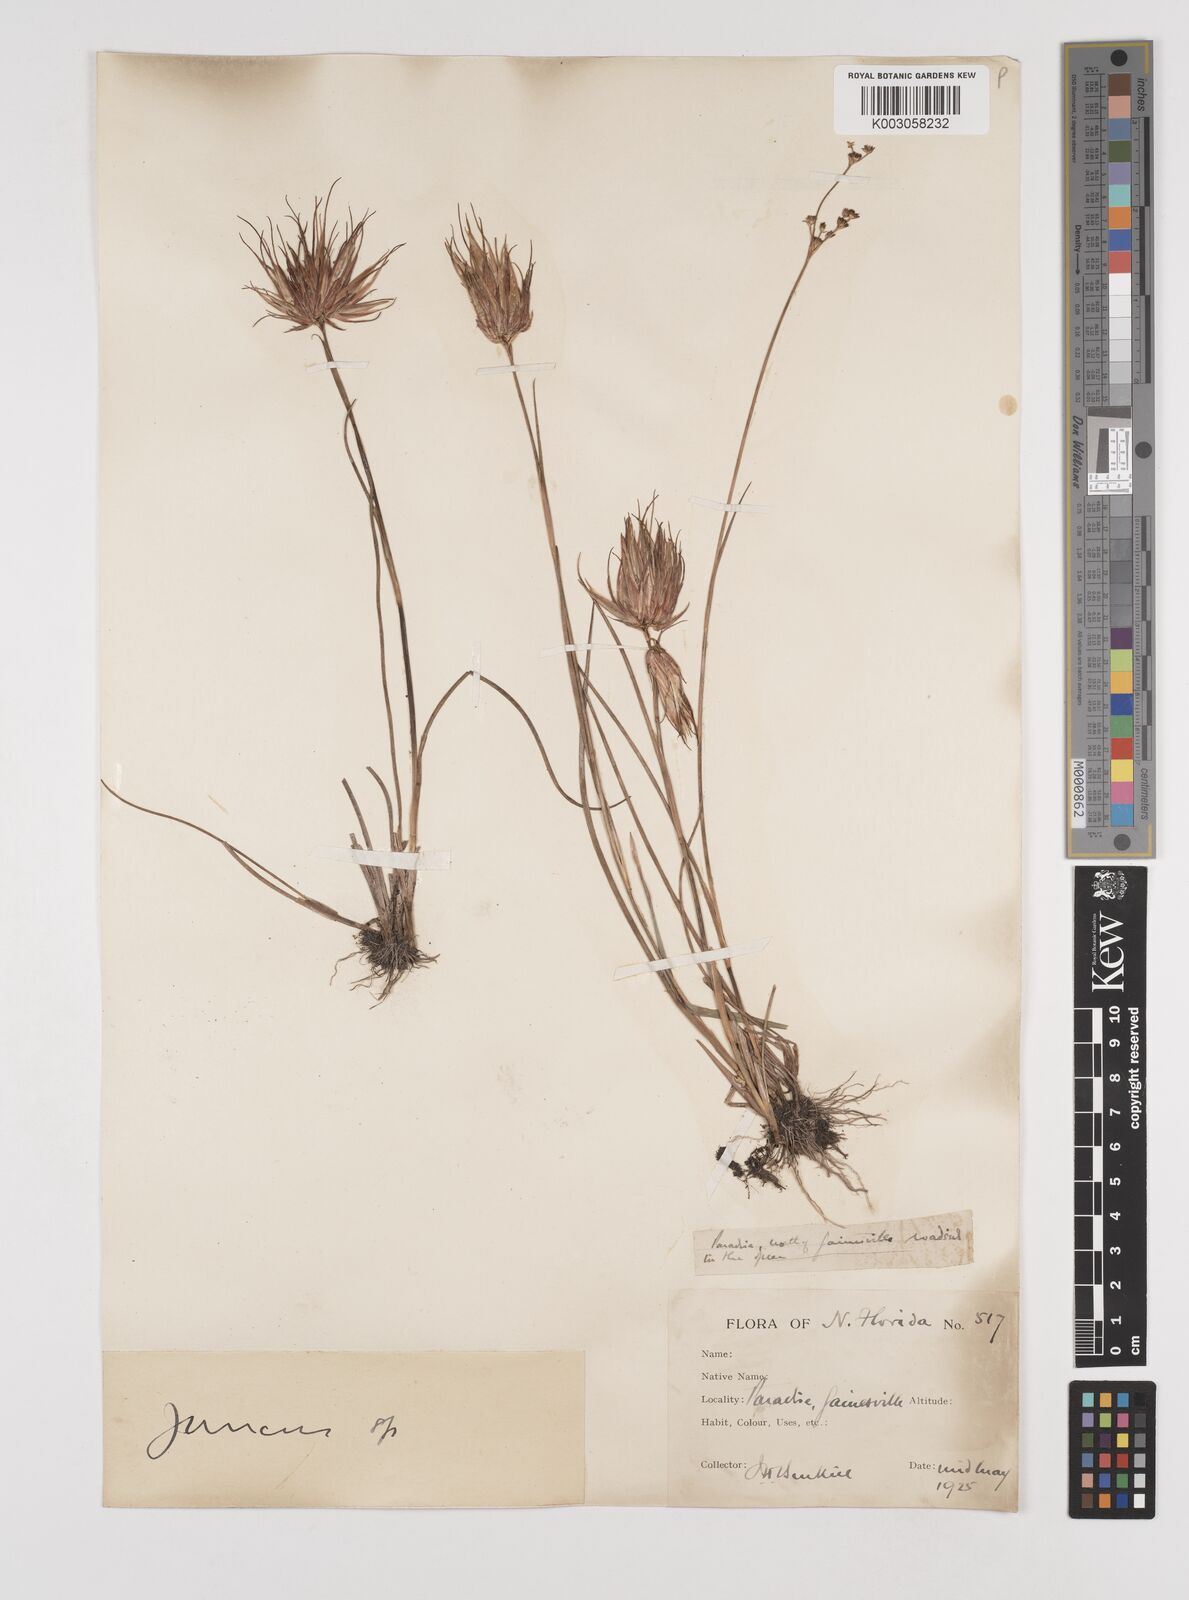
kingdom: Plantae
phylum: Tracheophyta
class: Liliopsida
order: Poales
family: Juncaceae
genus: Juncus
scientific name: Juncus
